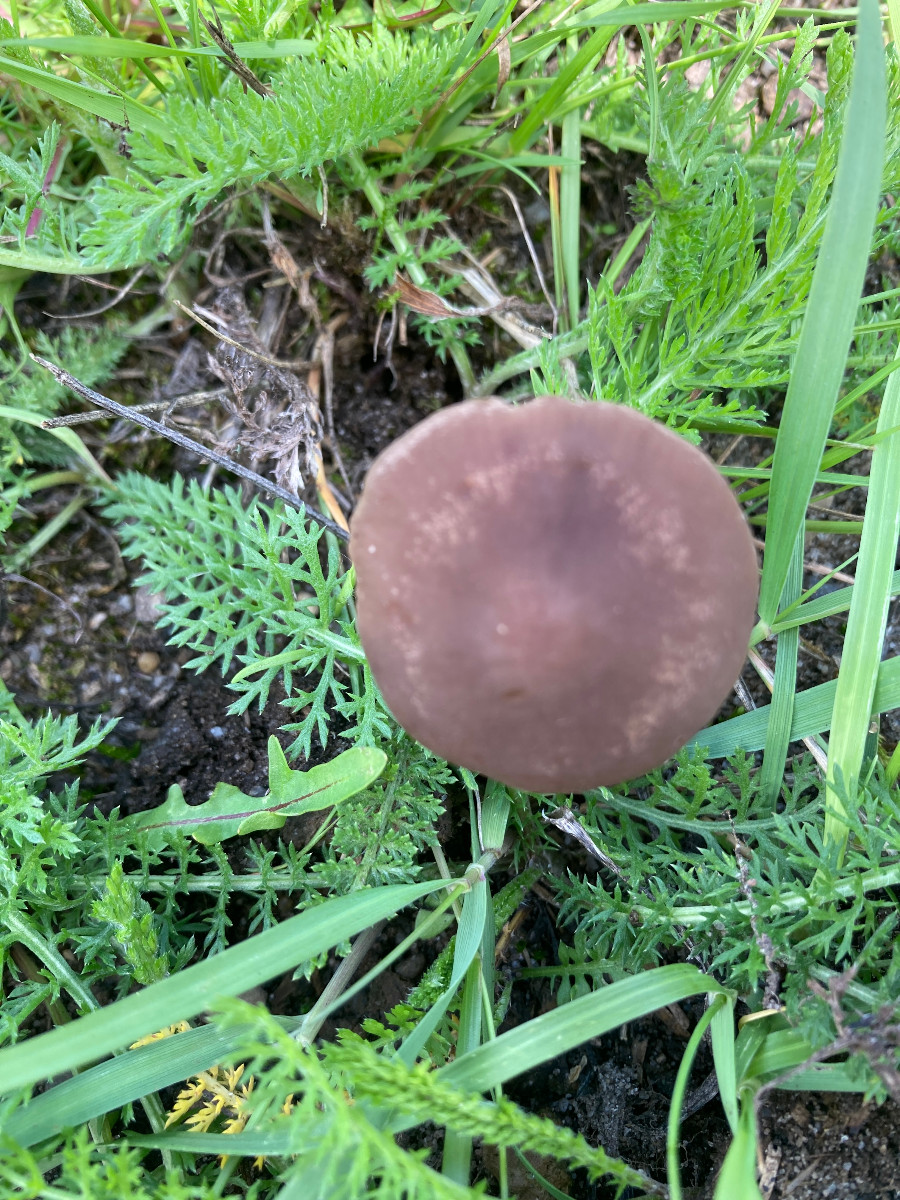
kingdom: Fungi
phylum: Basidiomycota
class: Agaricomycetes
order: Agaricales
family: Bolbitiaceae
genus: Panaeolina
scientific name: Panaeolina foenisecii
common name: høslætsvamp
